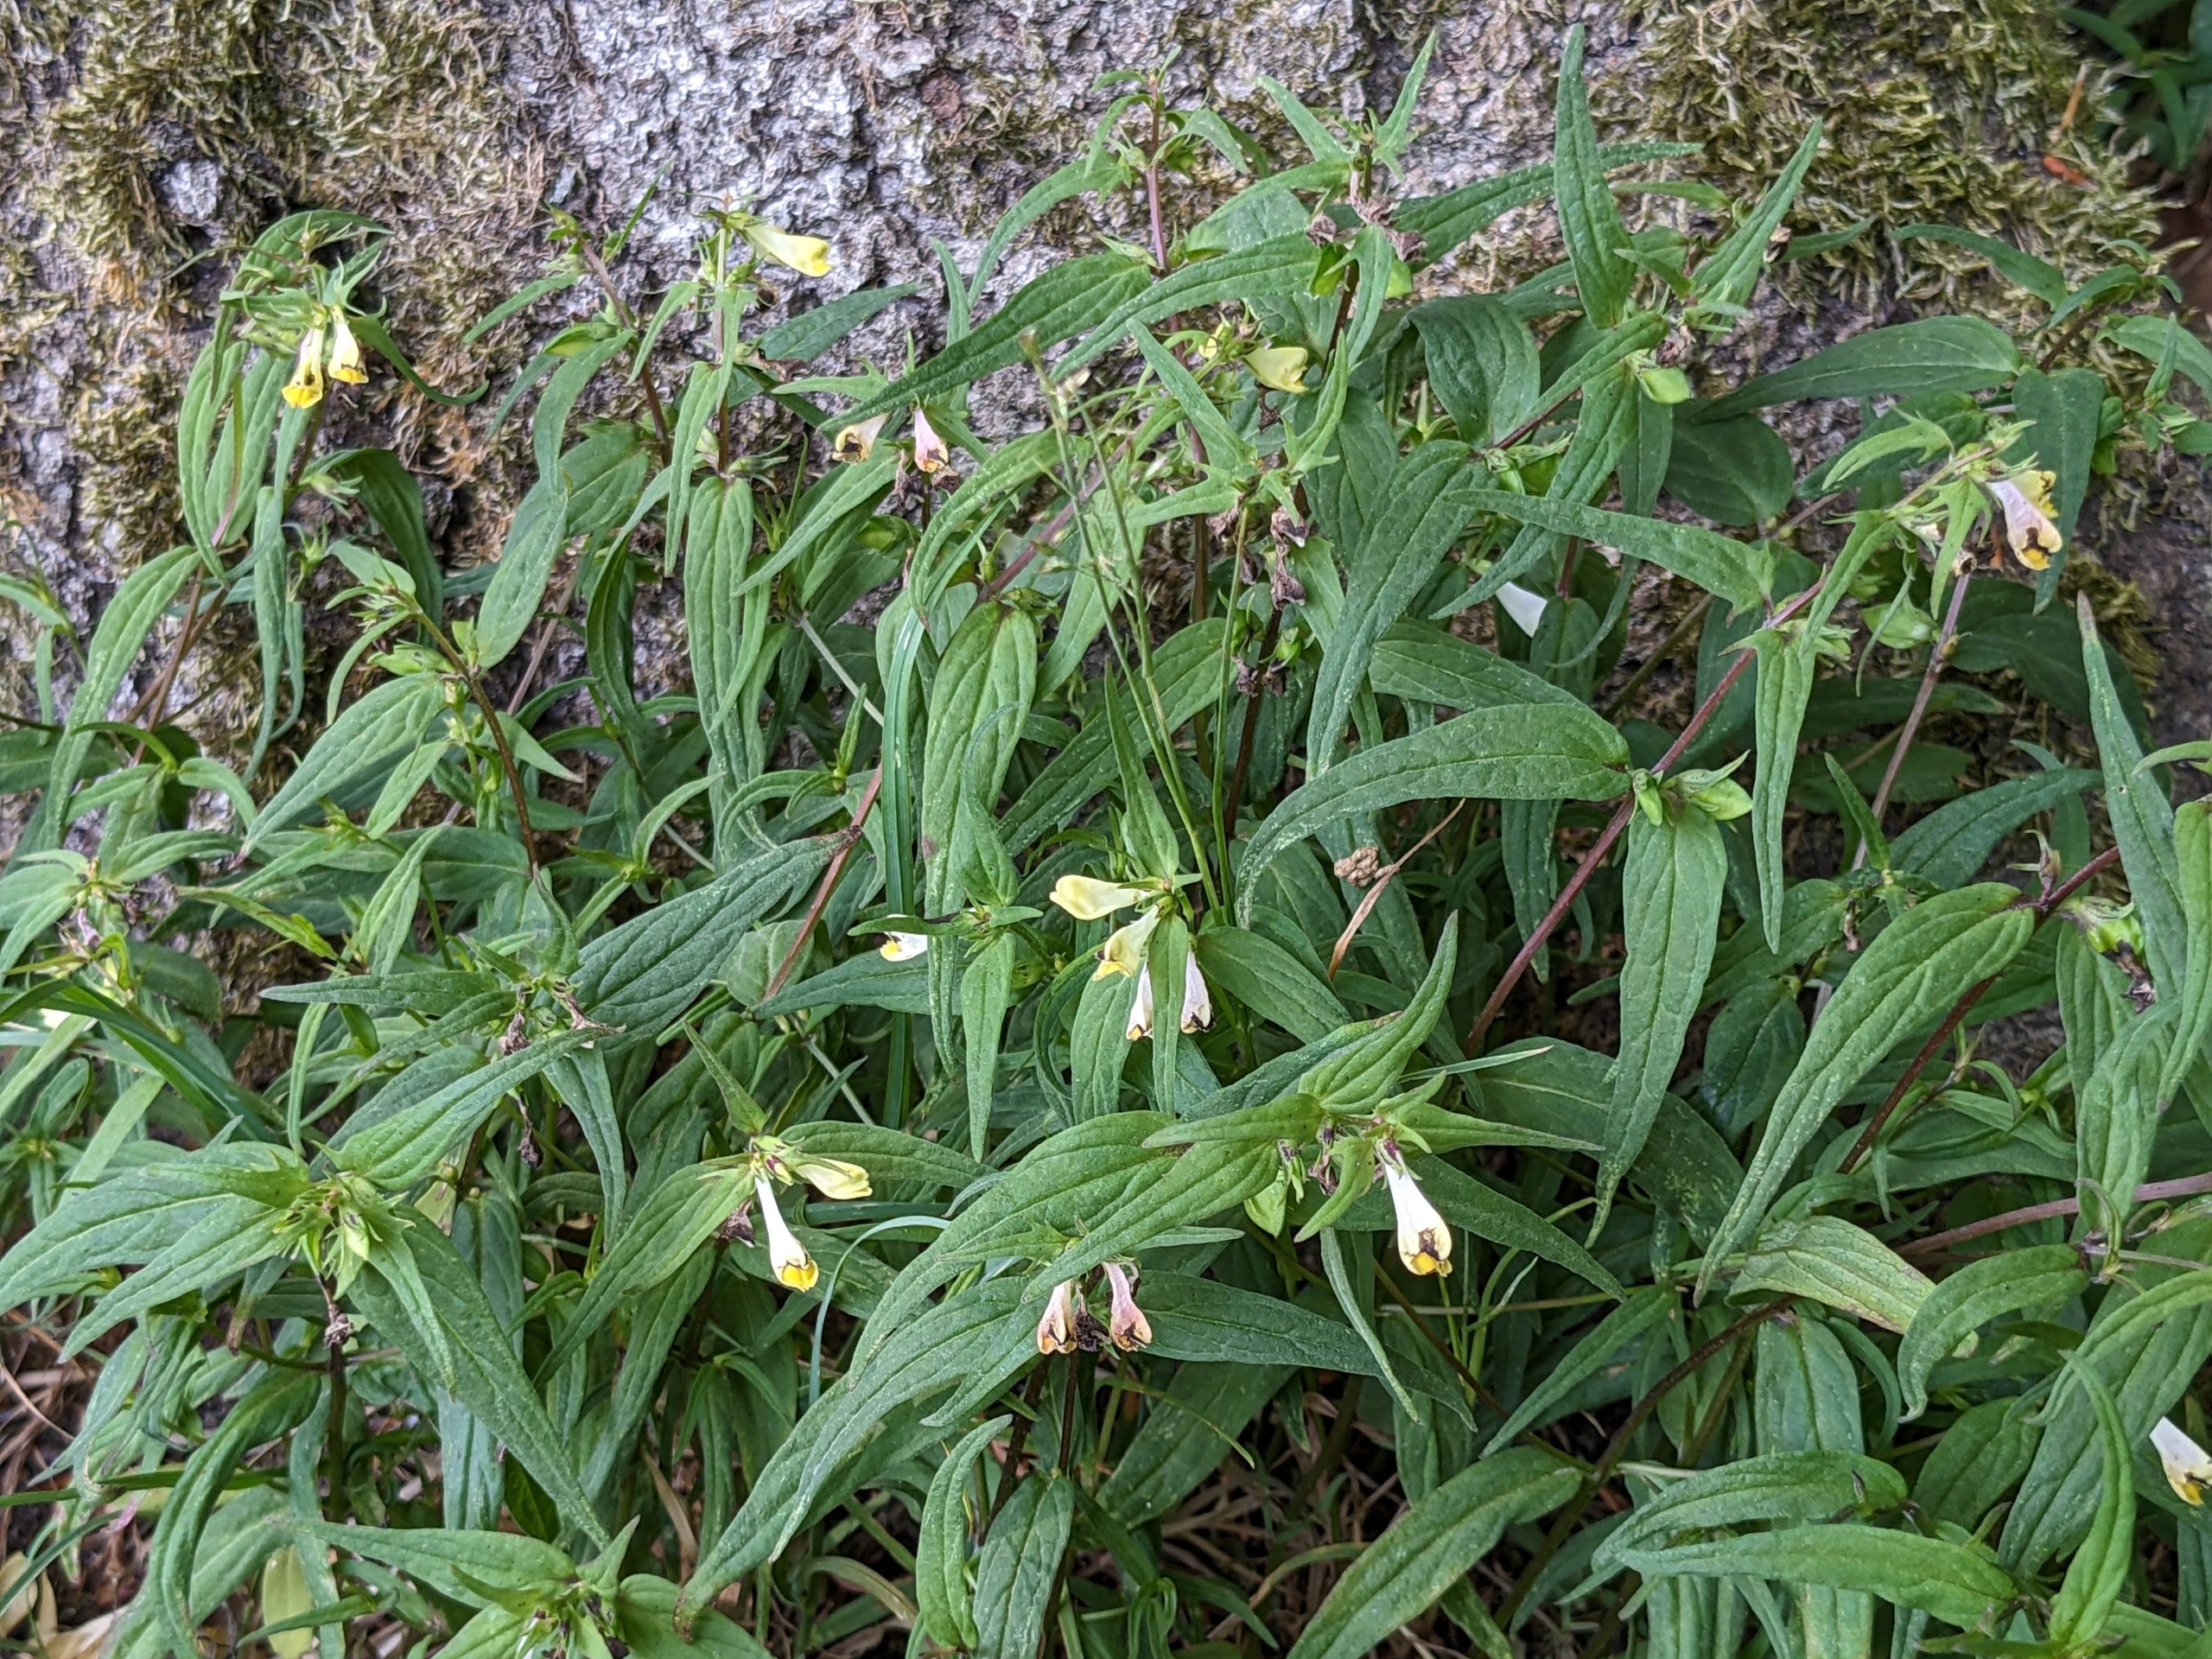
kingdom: Plantae
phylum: Tracheophyta
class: Magnoliopsida
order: Lamiales
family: Orobanchaceae
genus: Melampyrum
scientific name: Melampyrum pratense
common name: Almindelig kohvede
